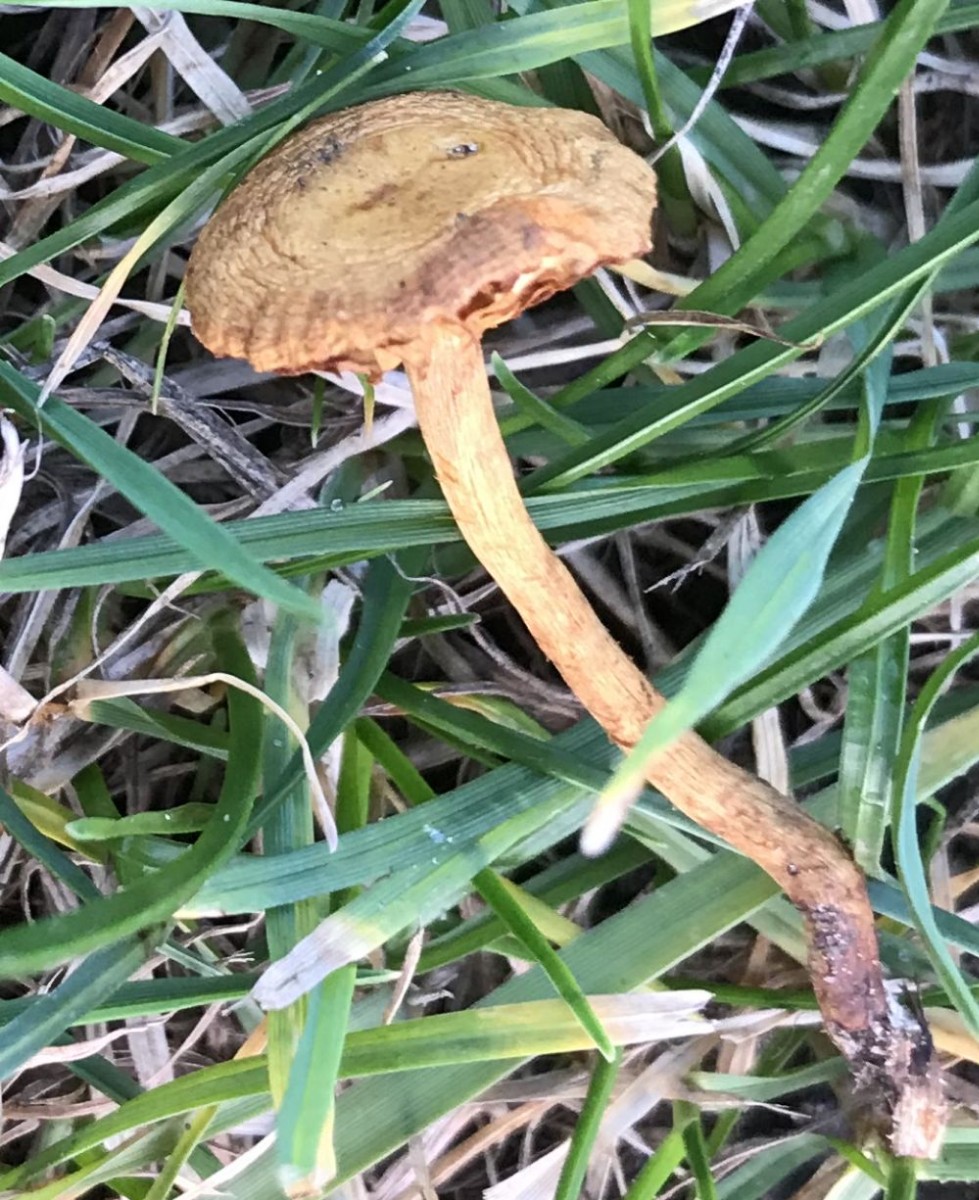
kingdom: Fungi
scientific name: Fungi
